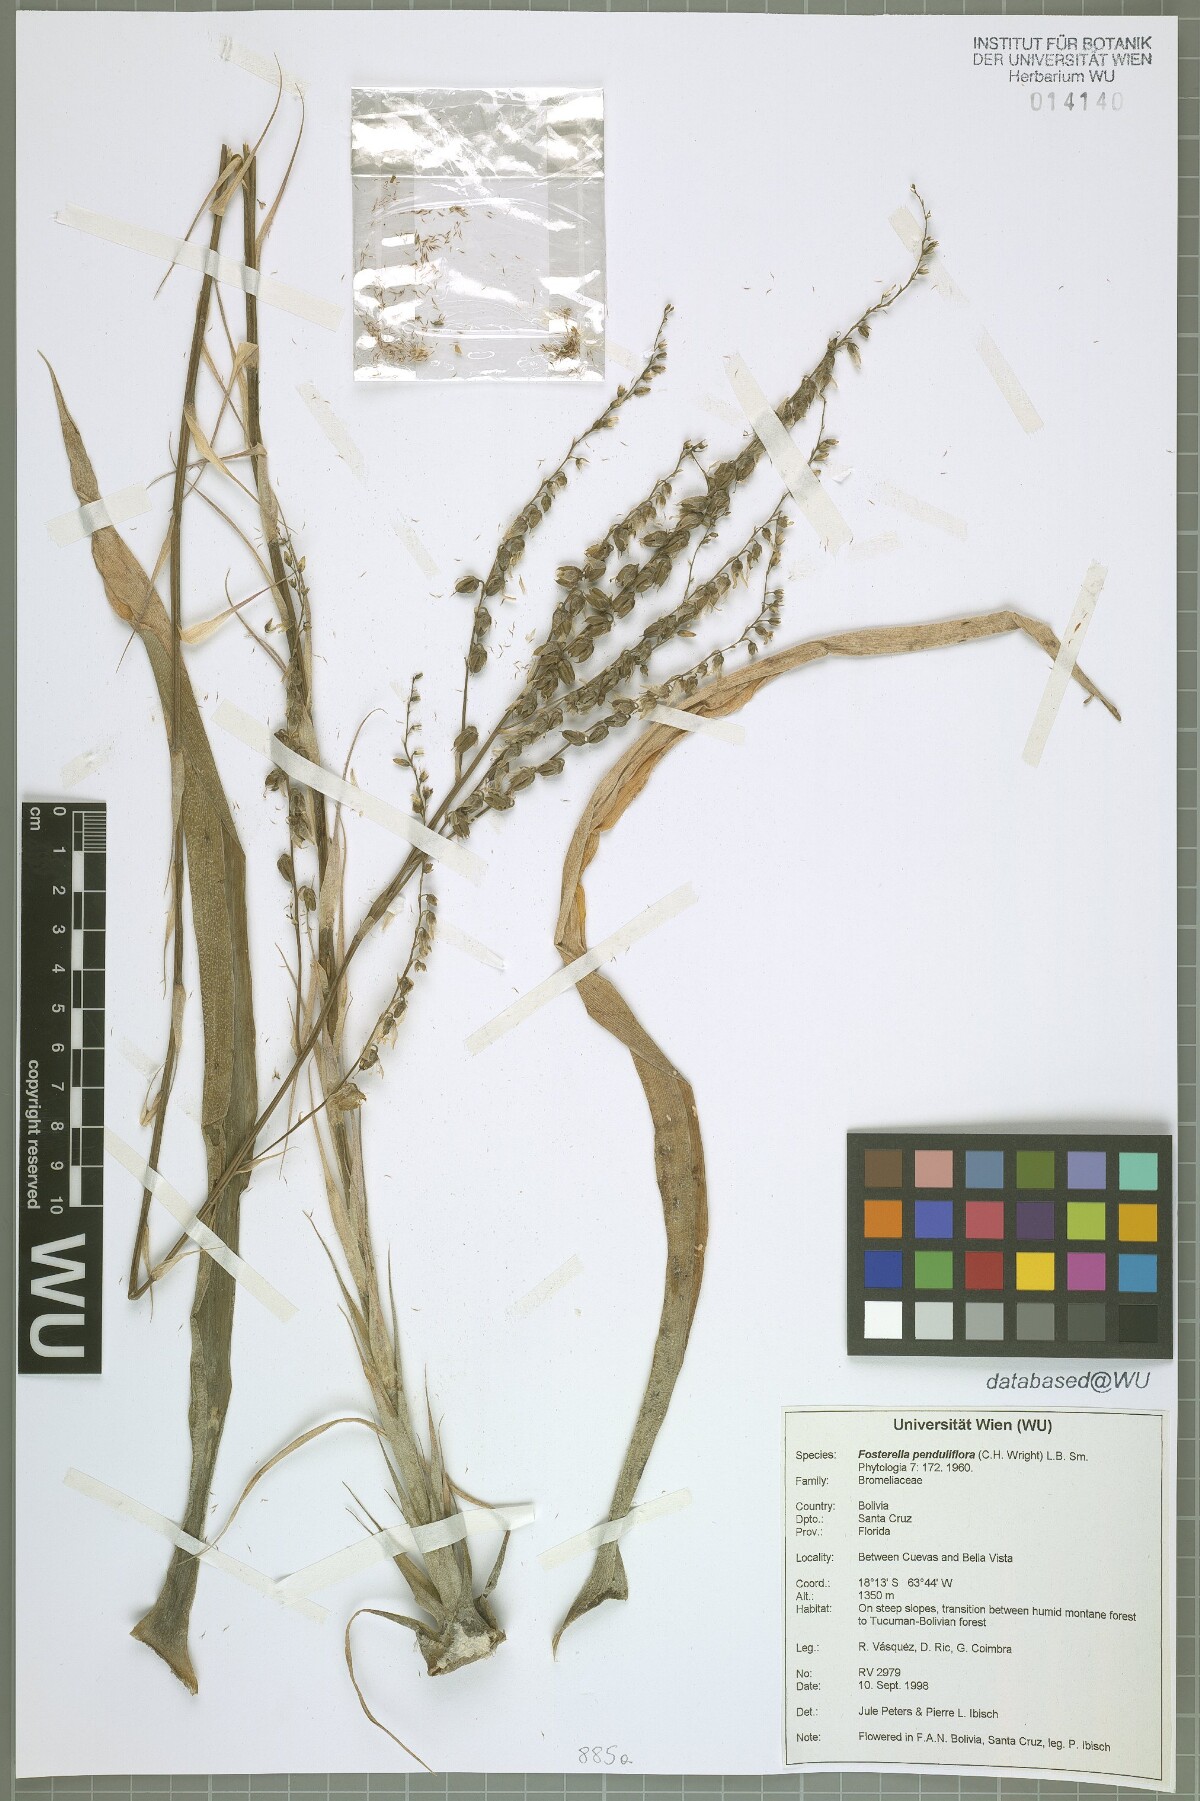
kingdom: Plantae
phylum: Tracheophyta
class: Liliopsida
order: Poales
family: Bromeliaceae
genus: Fosterella
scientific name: Fosterella penduliflora
